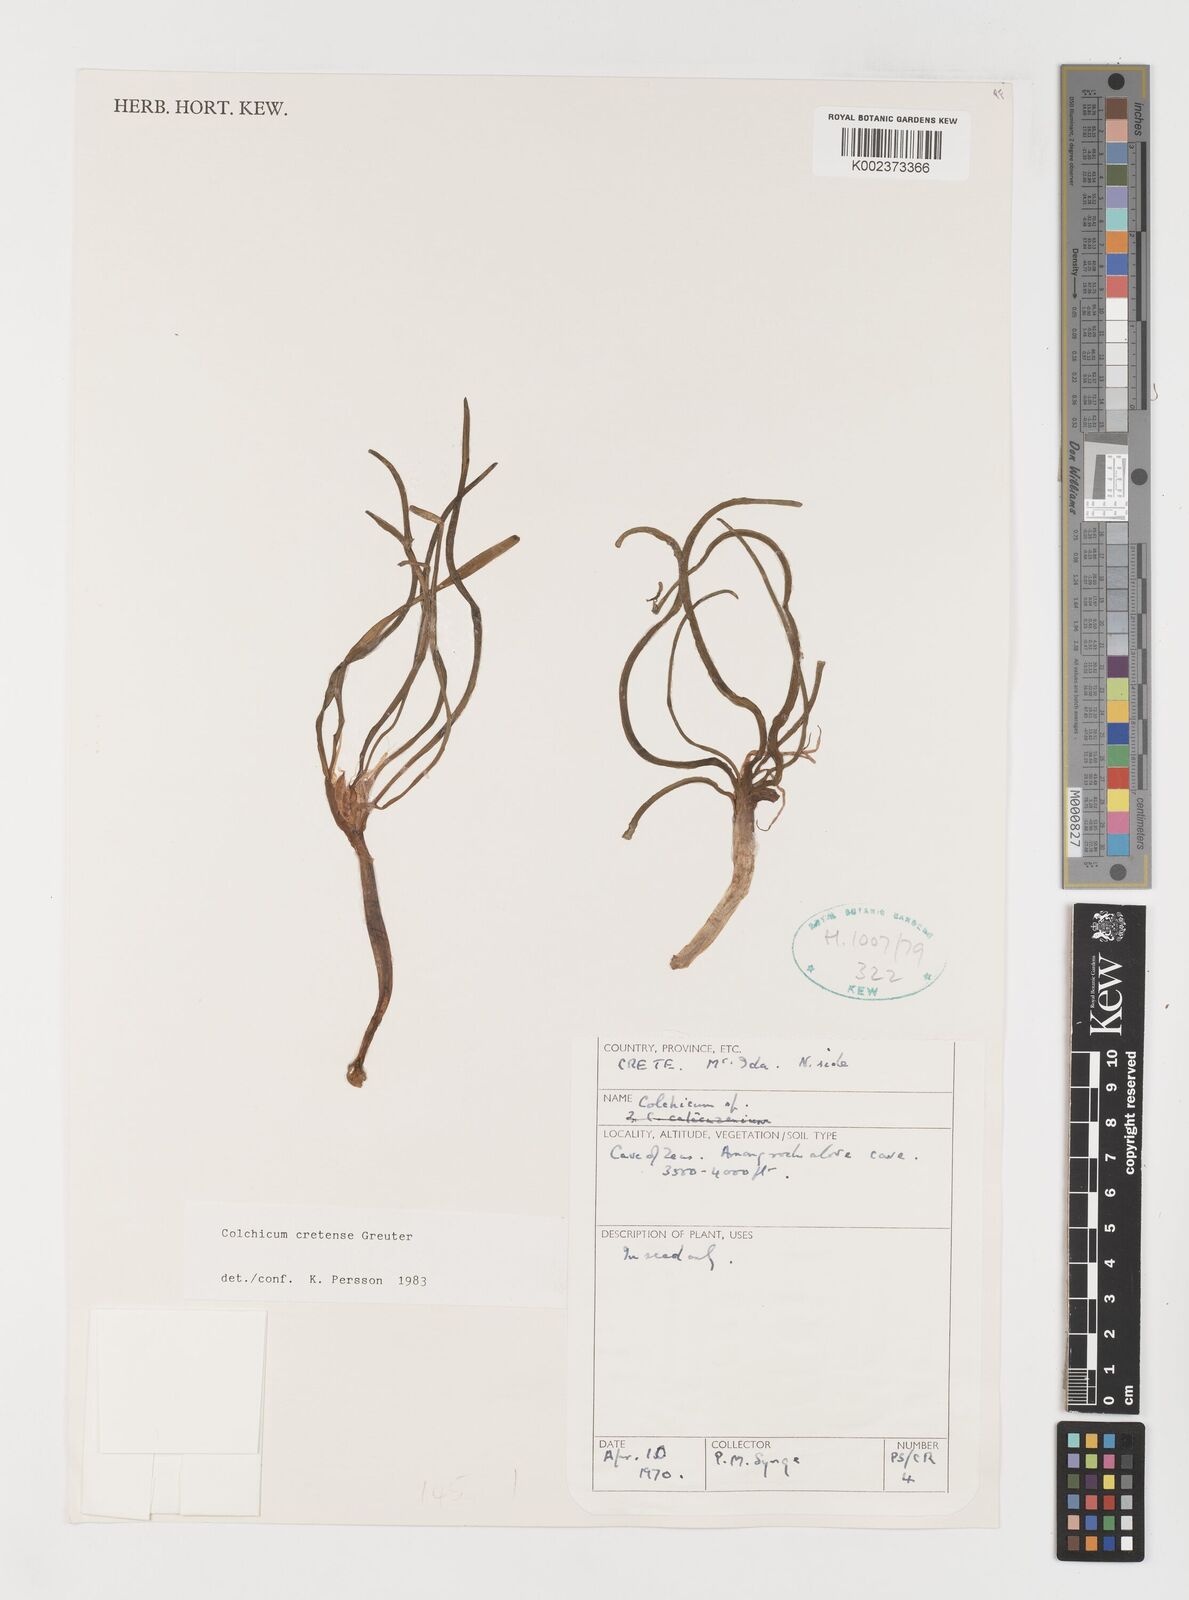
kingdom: Plantae
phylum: Tracheophyta
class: Liliopsida
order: Liliales
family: Colchicaceae
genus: Colchicum
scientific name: Colchicum cretense
